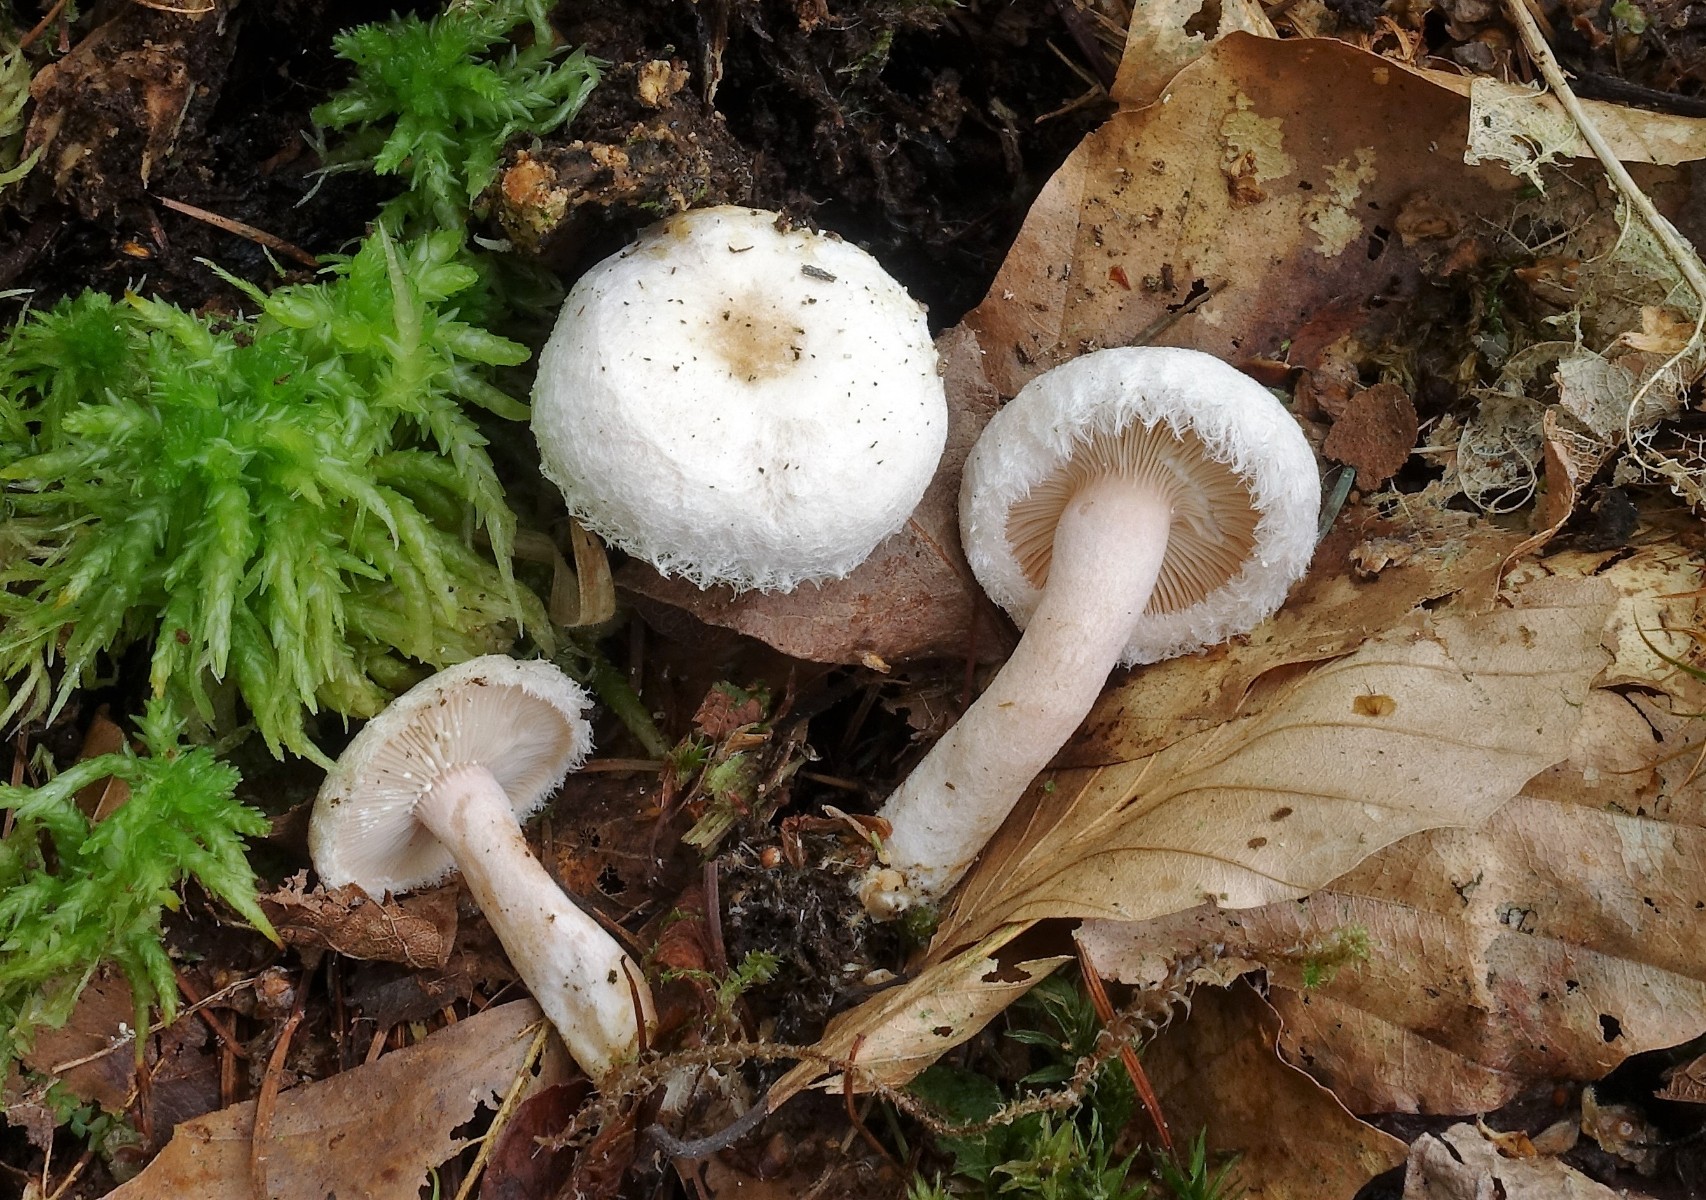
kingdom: Fungi
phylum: Basidiomycota
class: Agaricomycetes
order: Russulales
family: Russulaceae
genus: Lactarius
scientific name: Lactarius scoticus
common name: tørve-mælkehat
